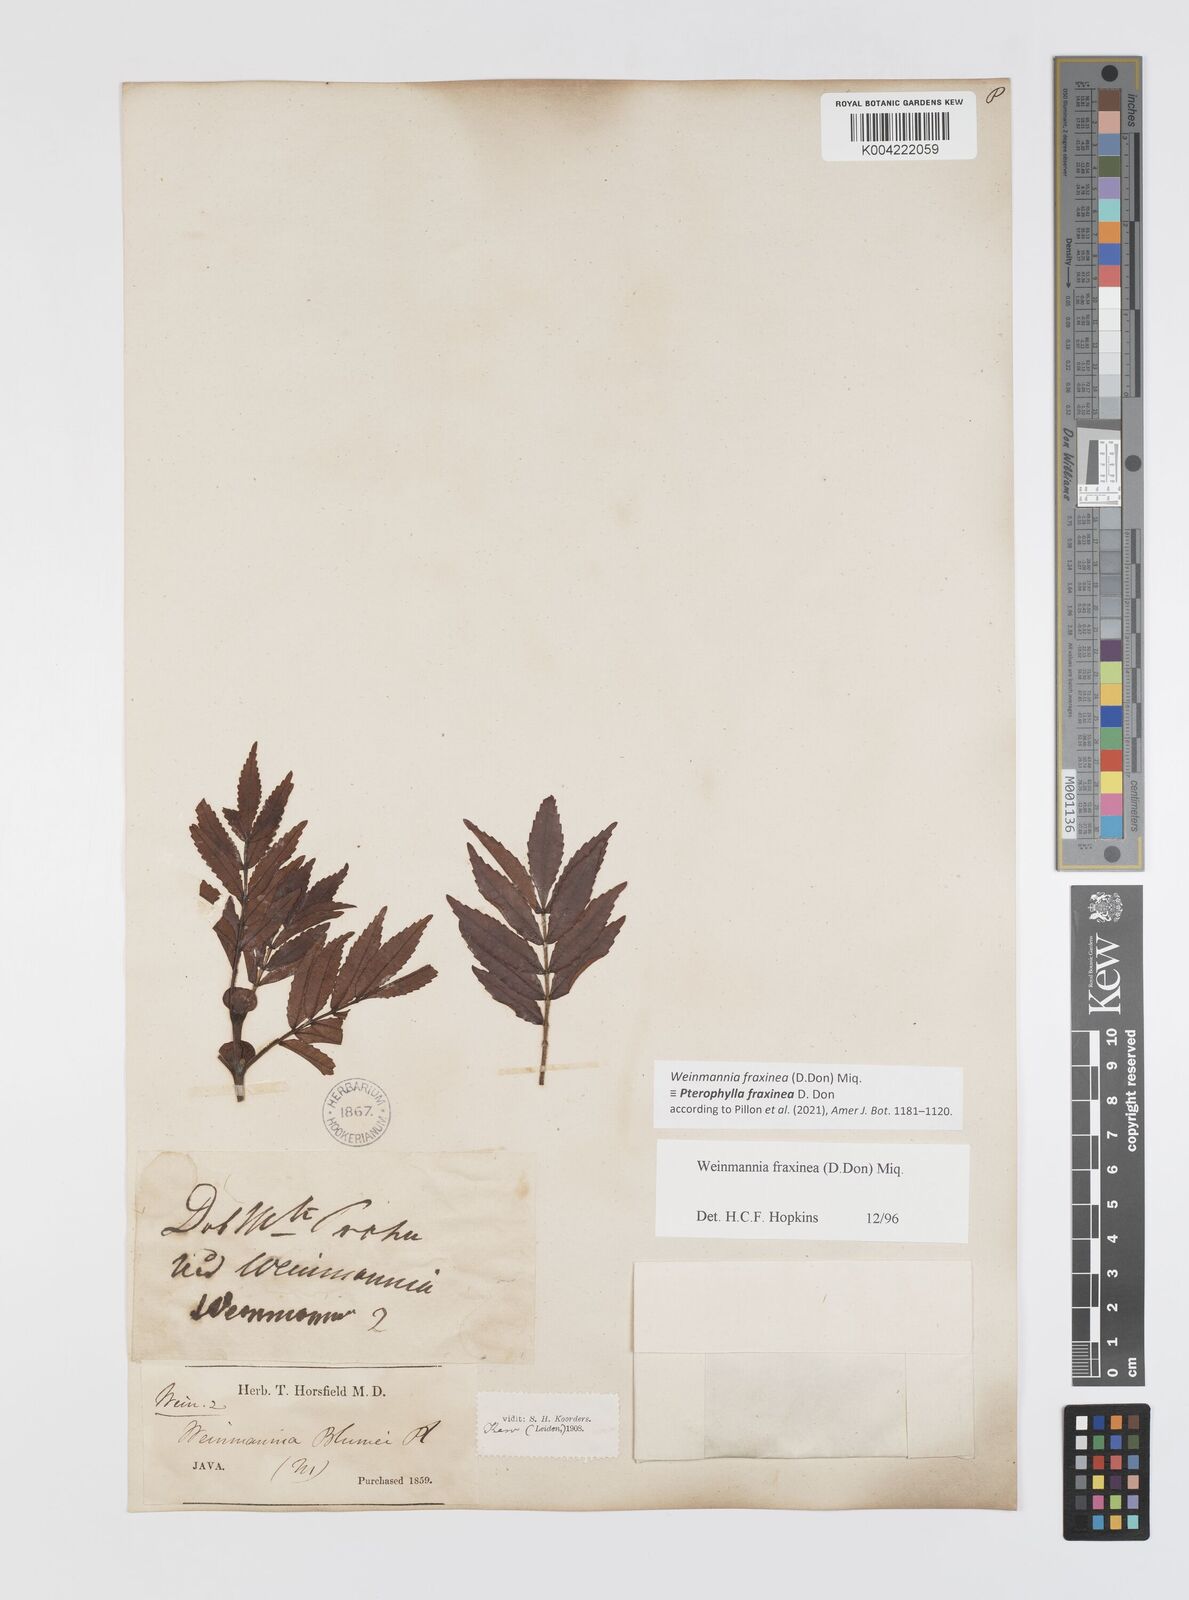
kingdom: Plantae
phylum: Tracheophyta
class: Magnoliopsida
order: Oxalidales
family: Cunoniaceae
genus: Pterophylla
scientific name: Pterophylla fraxinea
